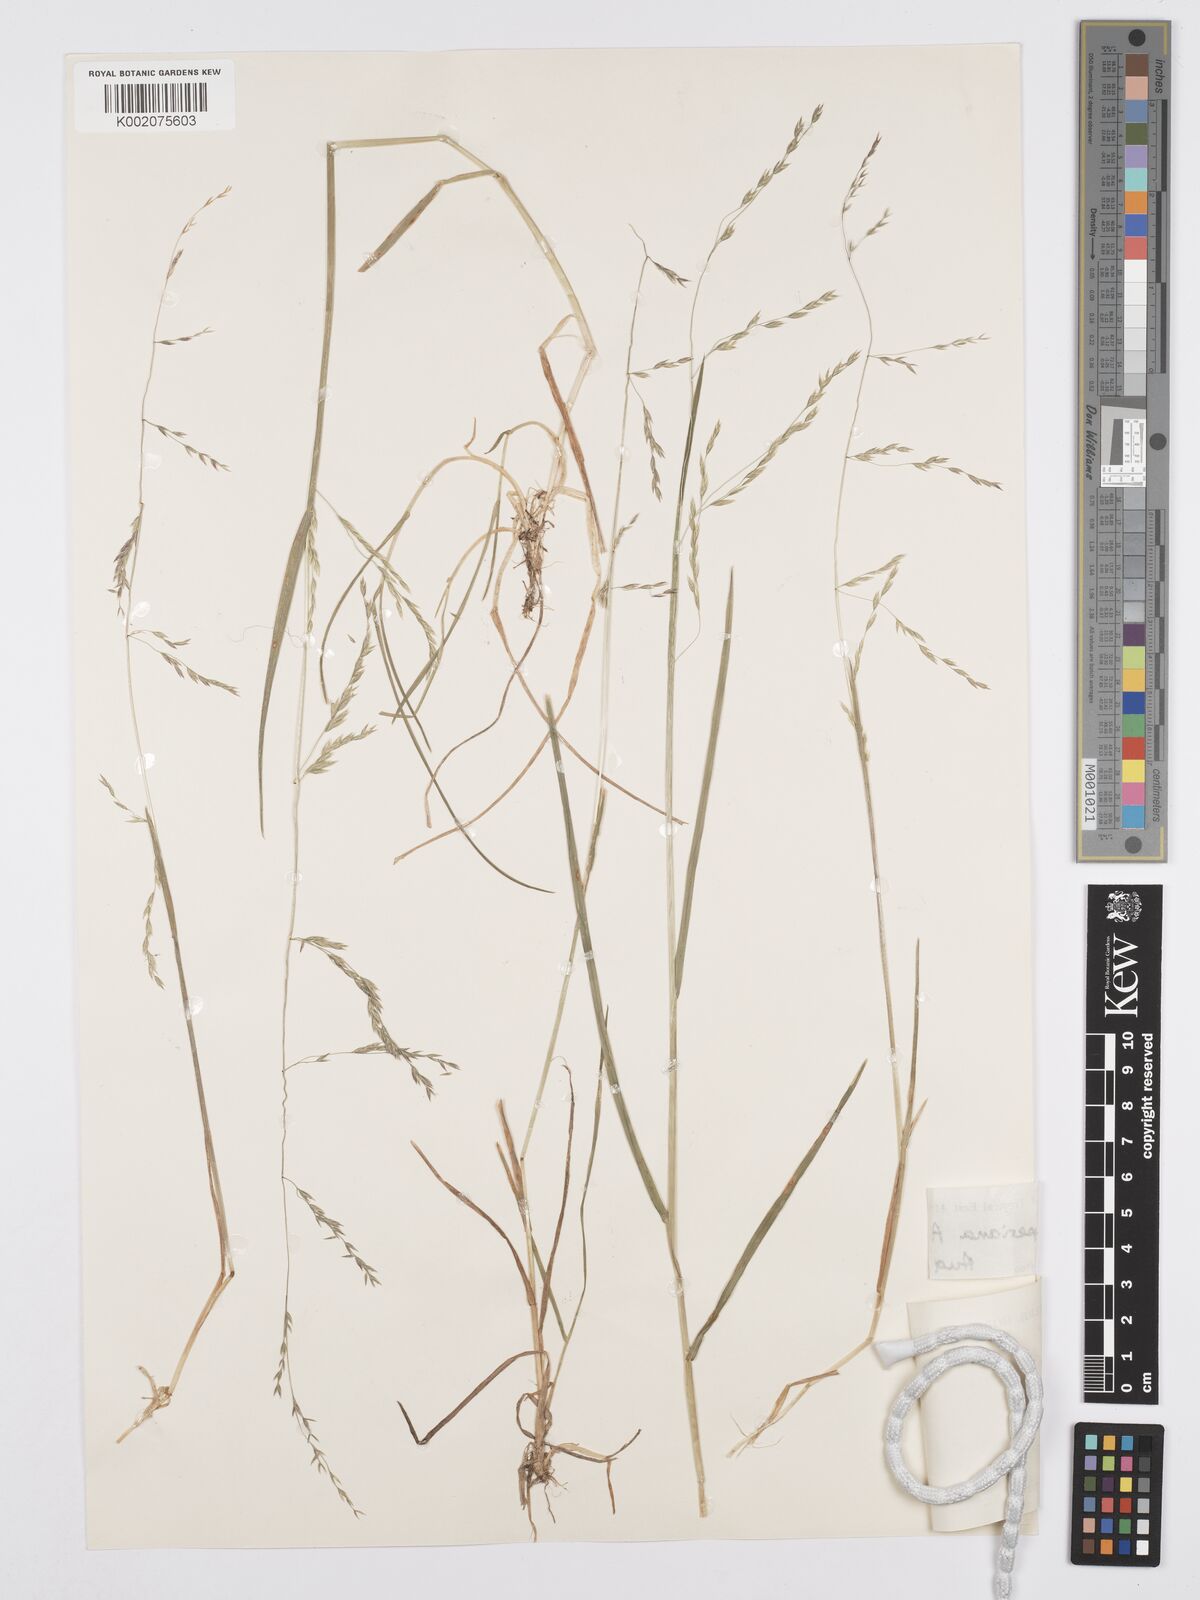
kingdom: Plantae
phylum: Tracheophyta
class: Liliopsida
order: Poales
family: Poaceae
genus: Poa
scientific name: Poa schimperiana
